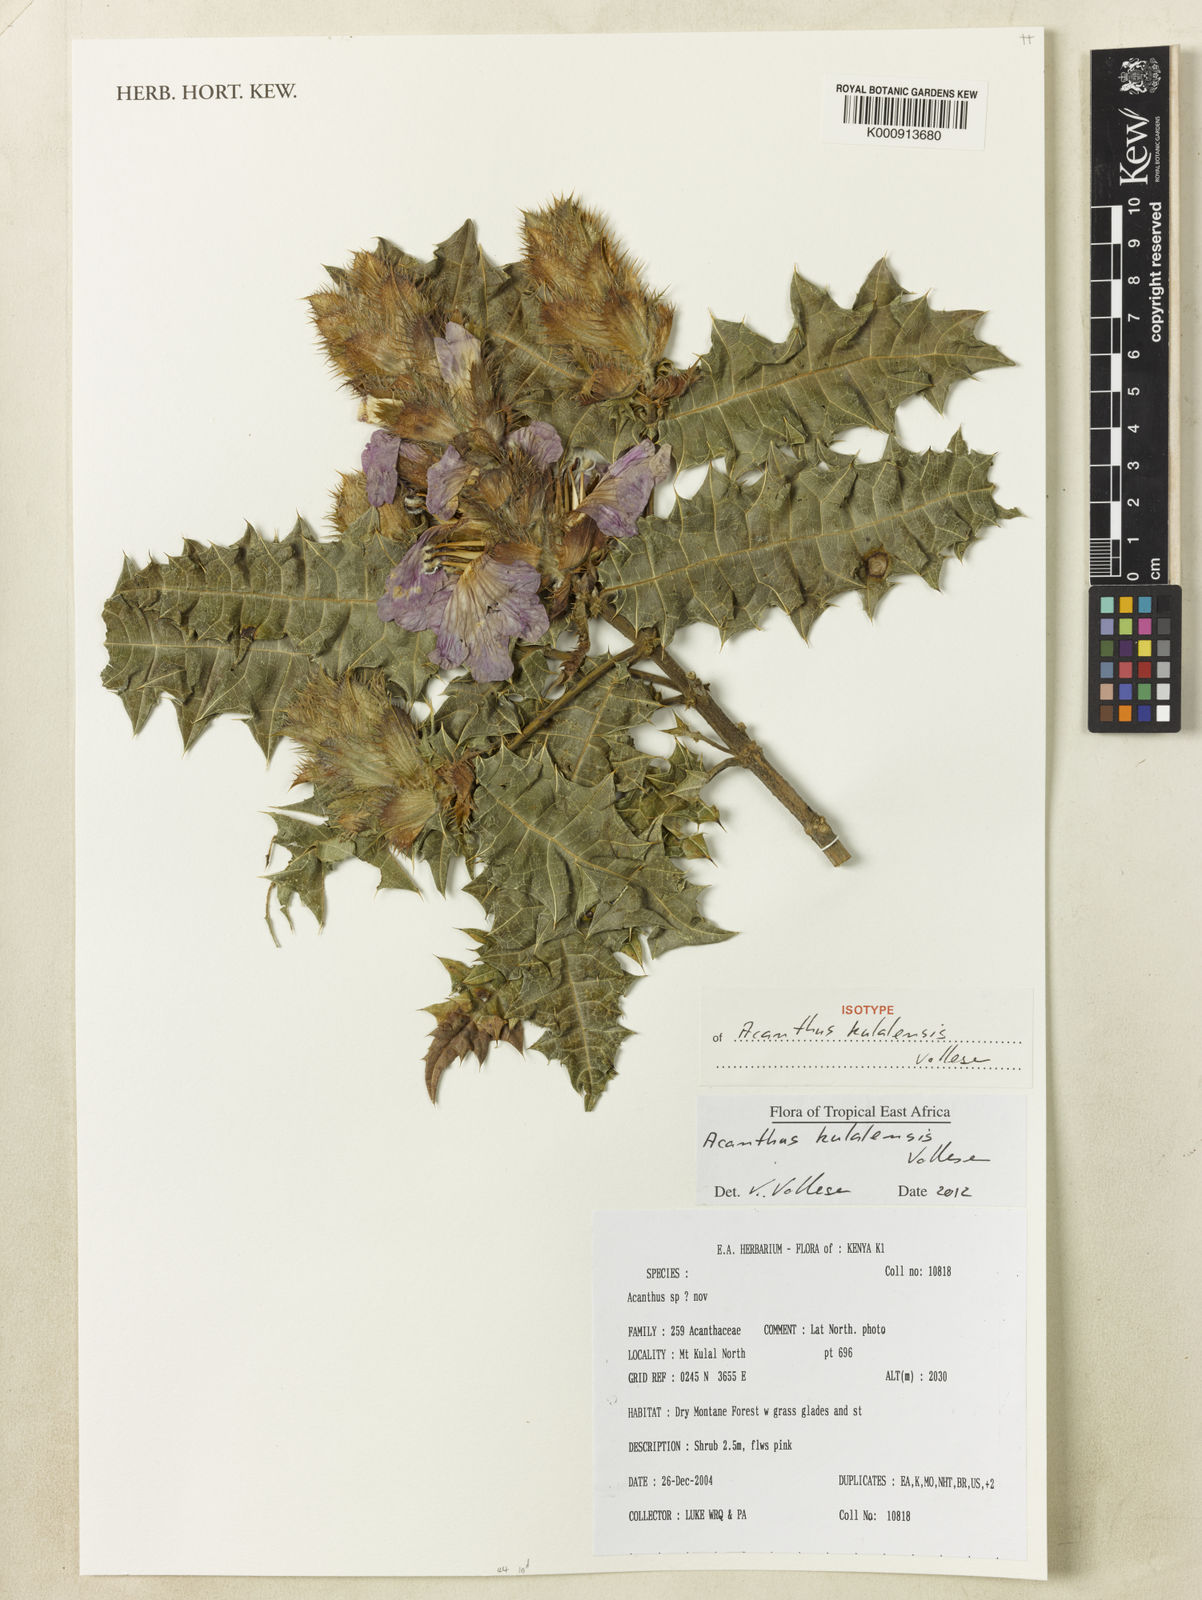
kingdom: Plantae
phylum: Tracheophyta
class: Magnoliopsida
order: Lamiales
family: Acanthaceae
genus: Acanthus
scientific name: Acanthus kulalensis
